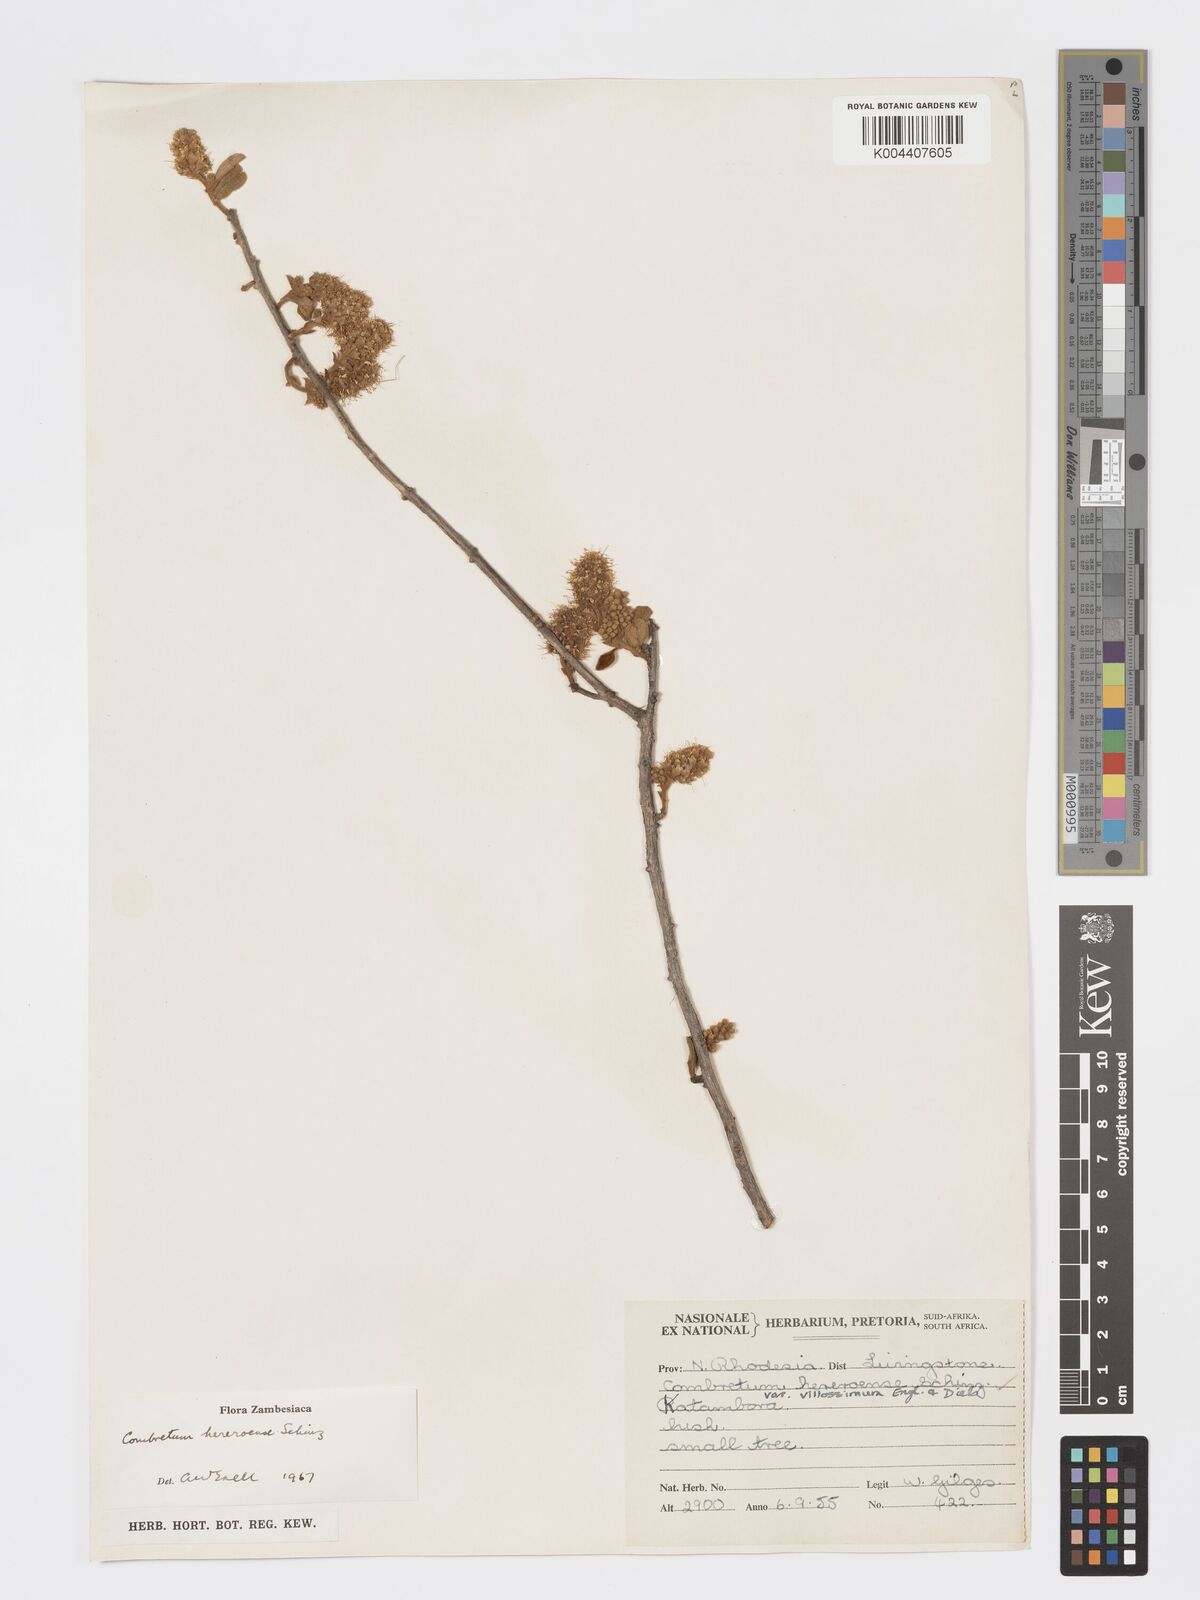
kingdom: Plantae
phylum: Tracheophyta
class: Magnoliopsida
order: Myrtales
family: Combretaceae
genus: Combretum
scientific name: Combretum hereroense
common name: Russet bushwillow
